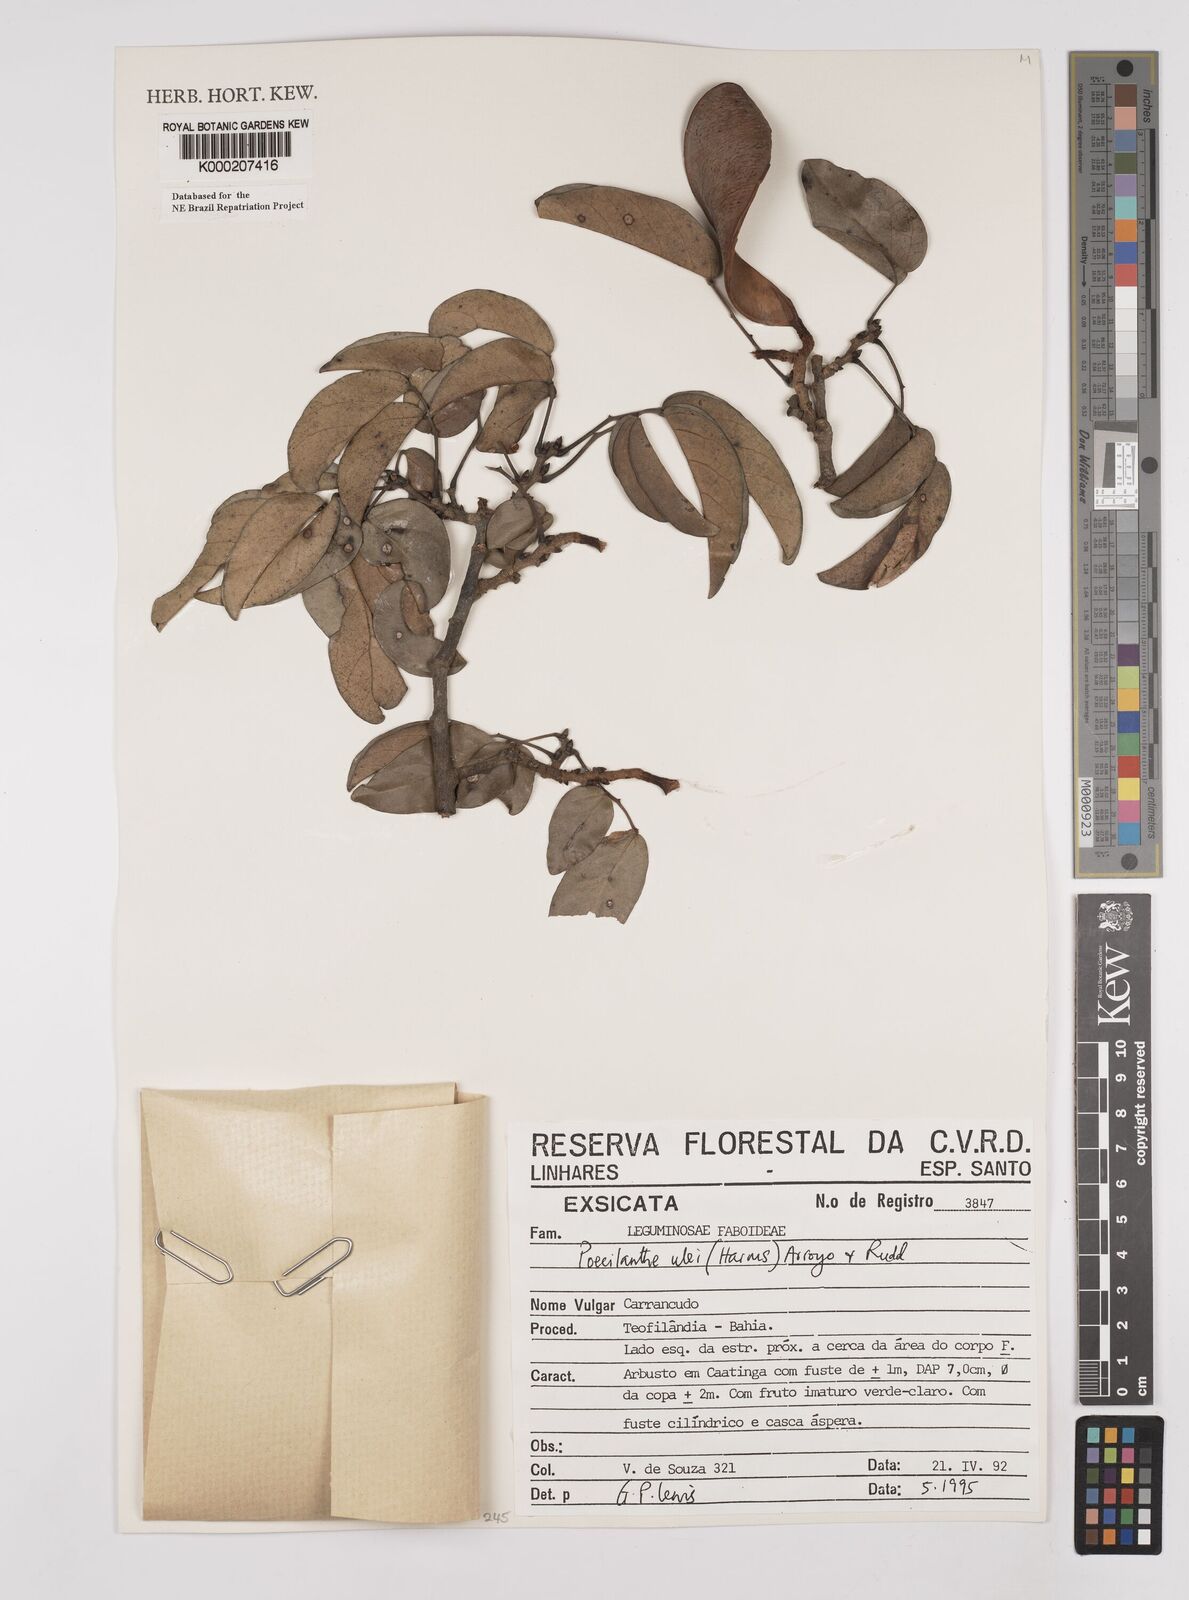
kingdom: Plantae
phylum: Tracheophyta
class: Magnoliopsida
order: Fabales
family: Fabaceae
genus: Poecilanthe
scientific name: Poecilanthe ulei
